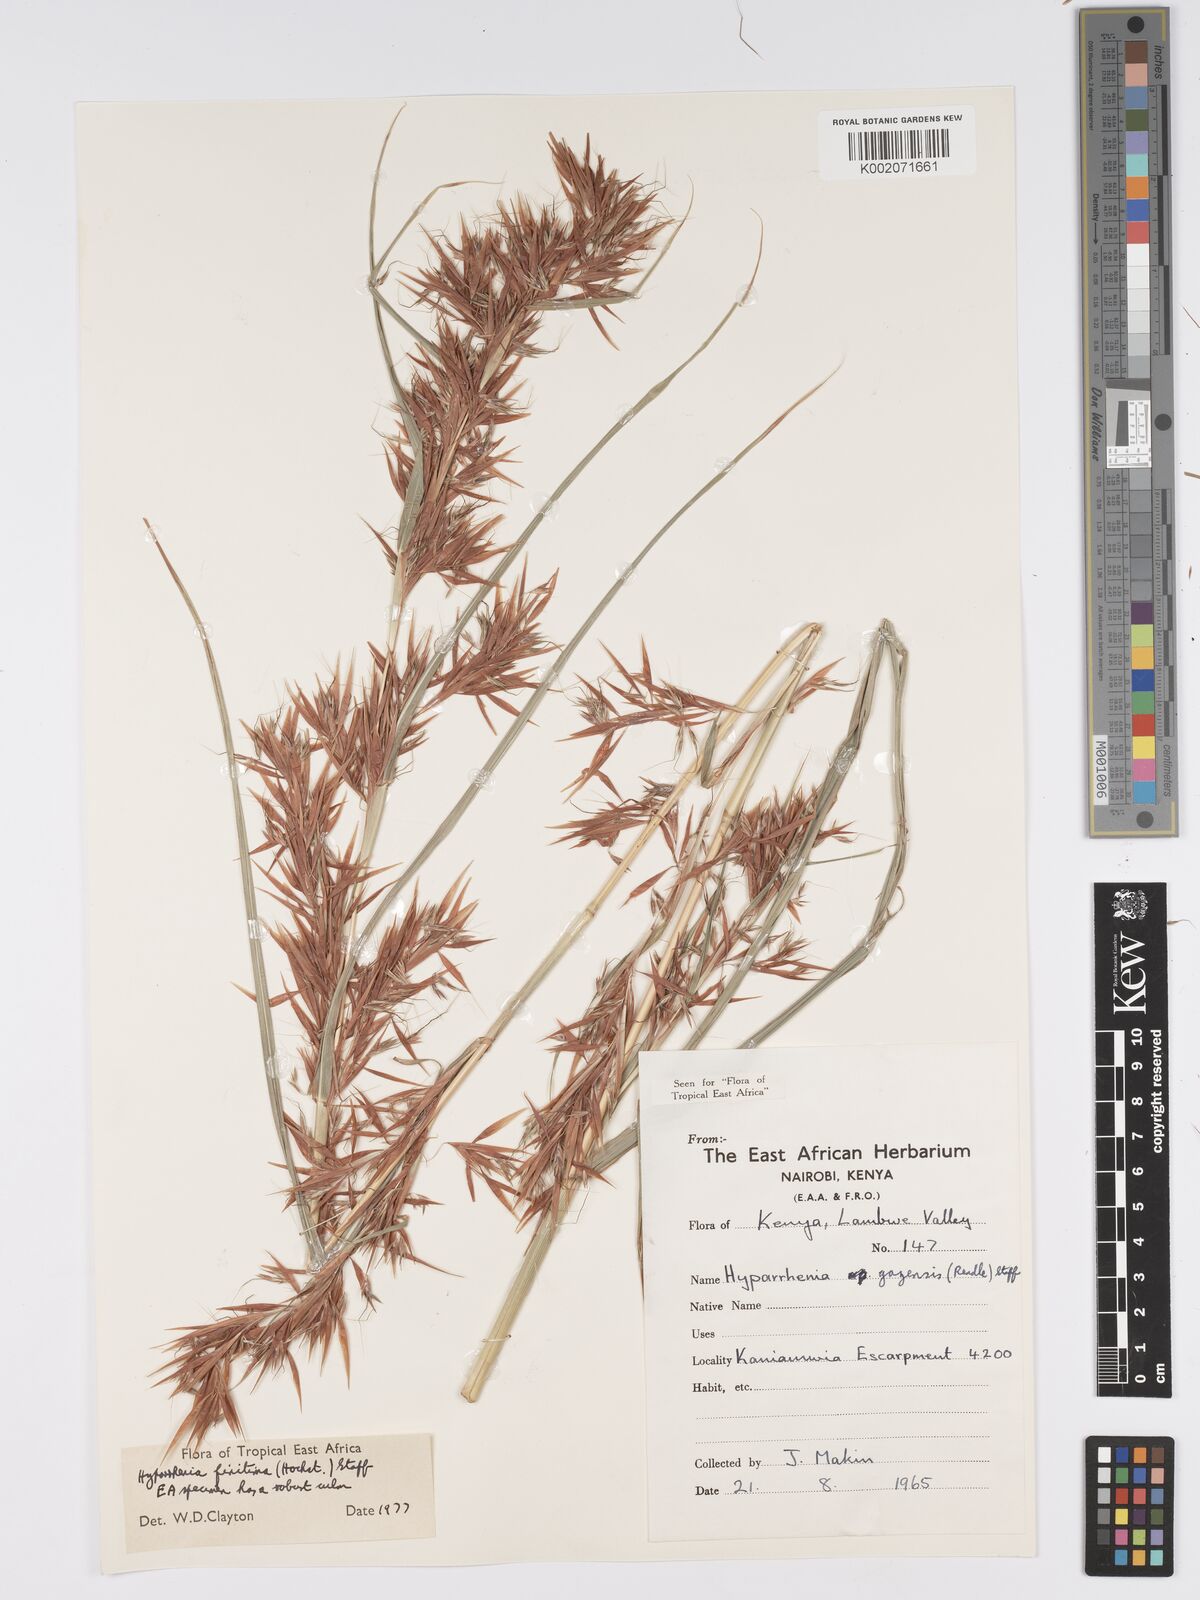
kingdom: Plantae
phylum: Tracheophyta
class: Liliopsida
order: Poales
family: Poaceae
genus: Hyparrhenia
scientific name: Hyparrhenia finitima
